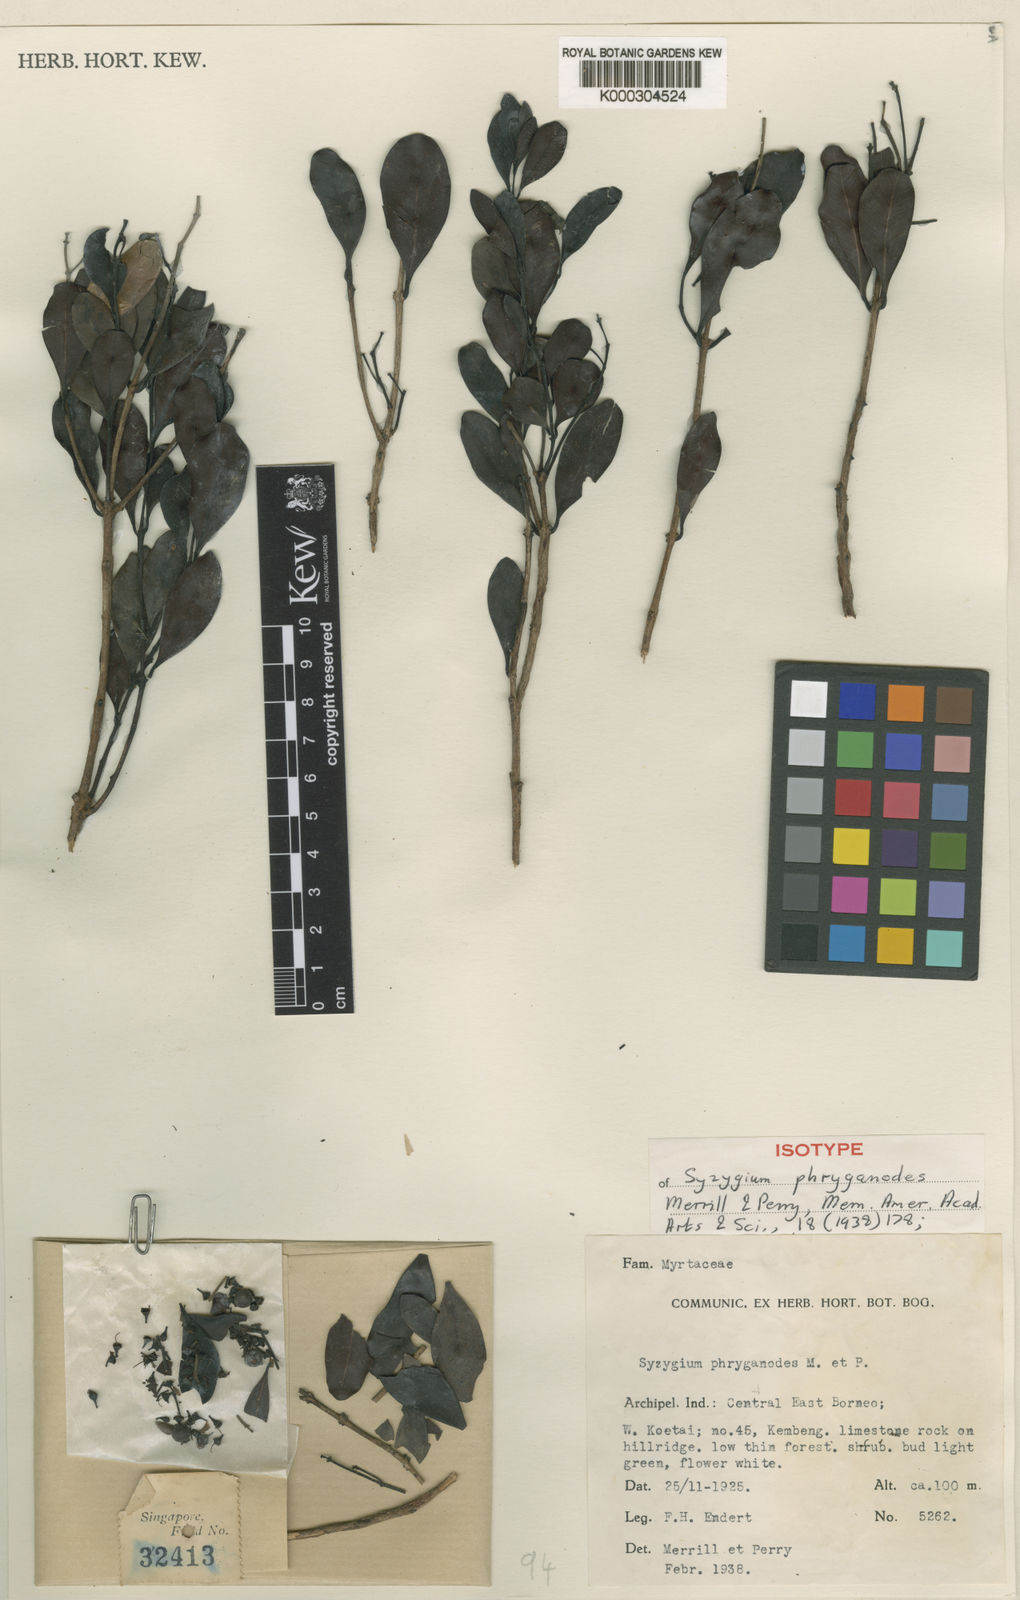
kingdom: Plantae
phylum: Tracheophyta
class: Magnoliopsida
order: Myrtales
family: Myrtaceae
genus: Syzygium
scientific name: Syzygium phryganodes
